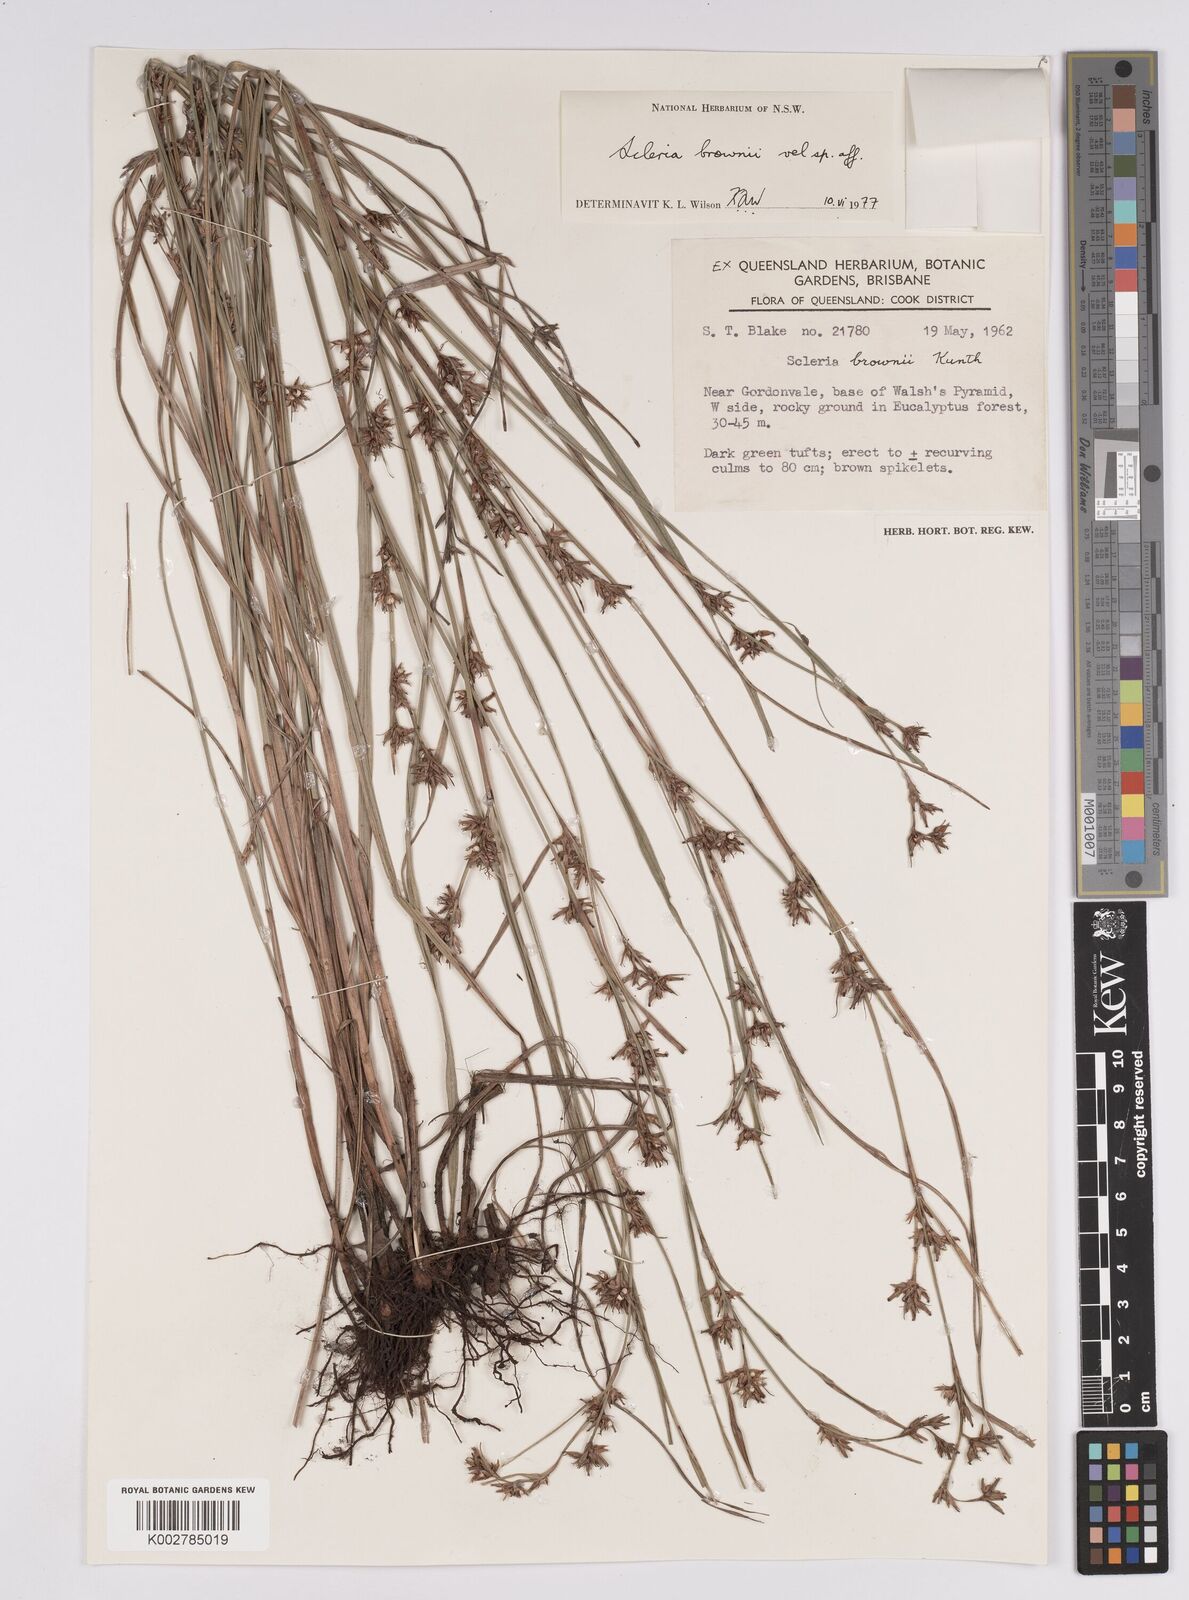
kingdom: Plantae
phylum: Tracheophyta
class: Liliopsida
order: Poales
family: Cyperaceae
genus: Scleria
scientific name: Scleria brownii
